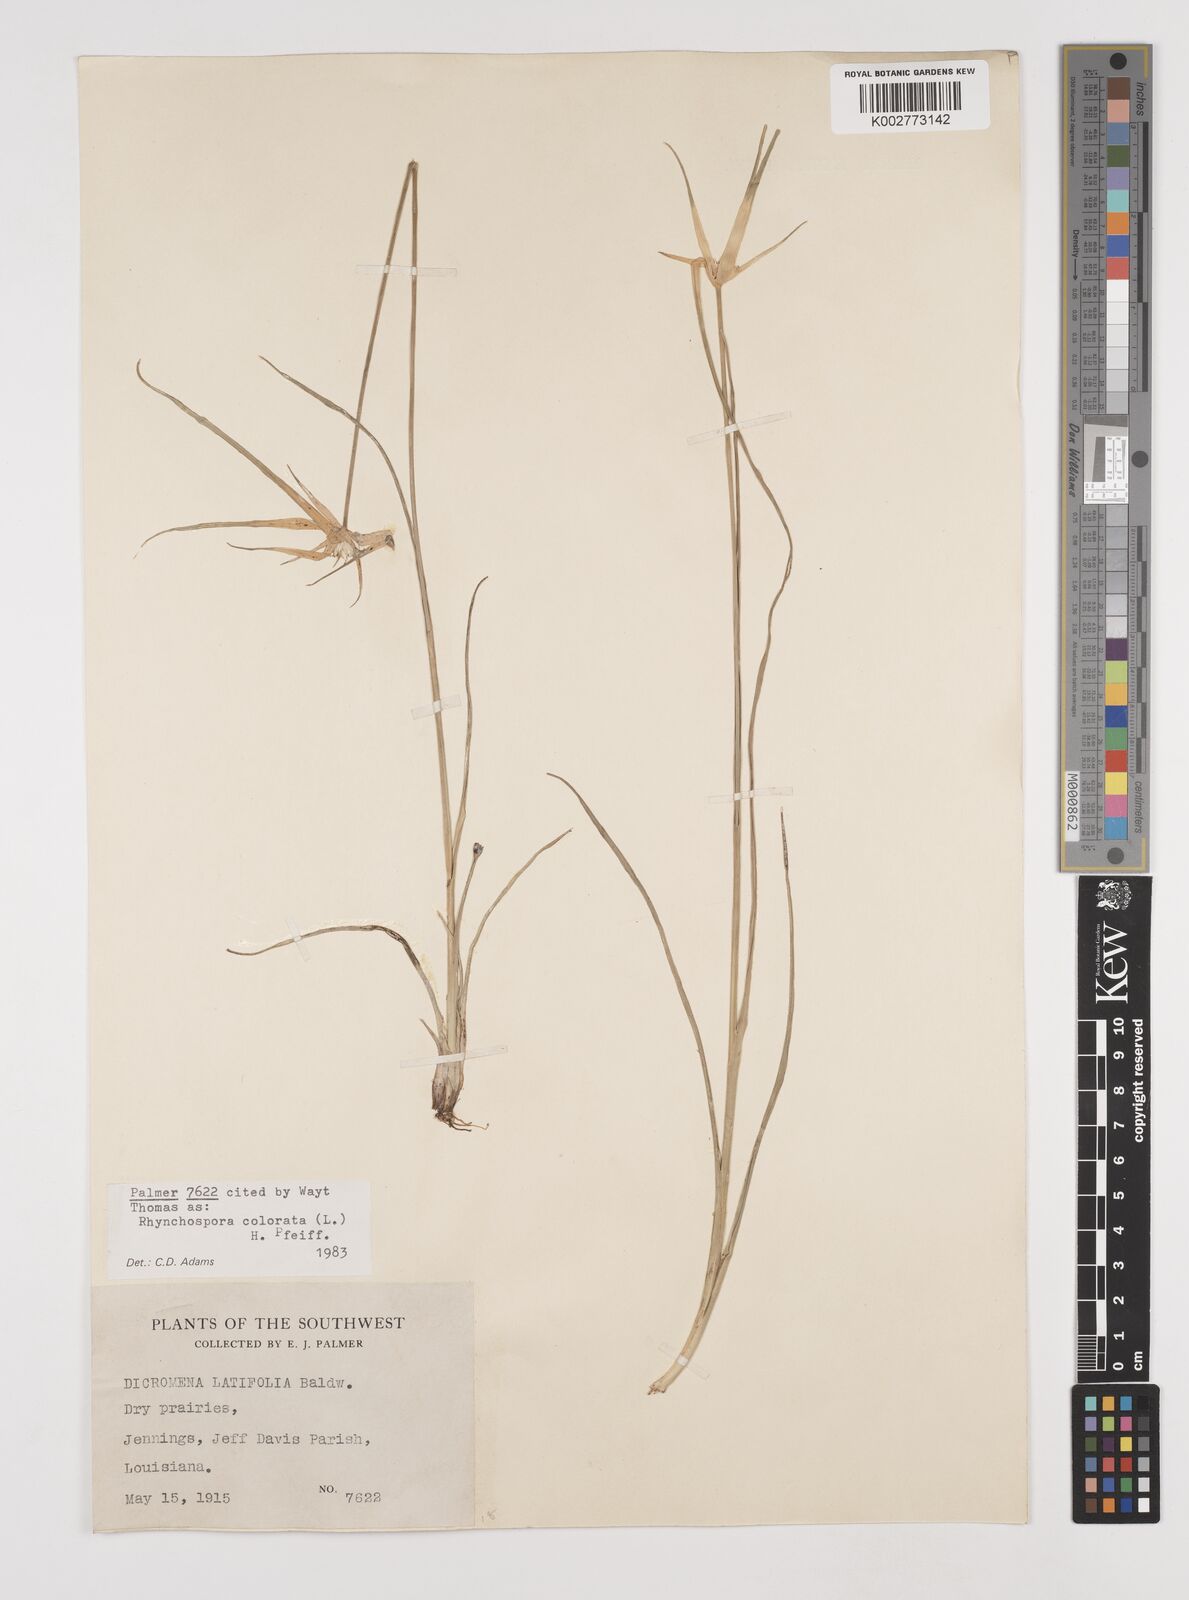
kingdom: Plantae
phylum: Tracheophyta
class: Liliopsida
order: Poales
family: Cyperaceae
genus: Rhynchospora
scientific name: Rhynchospora colorata
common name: Star sedge
